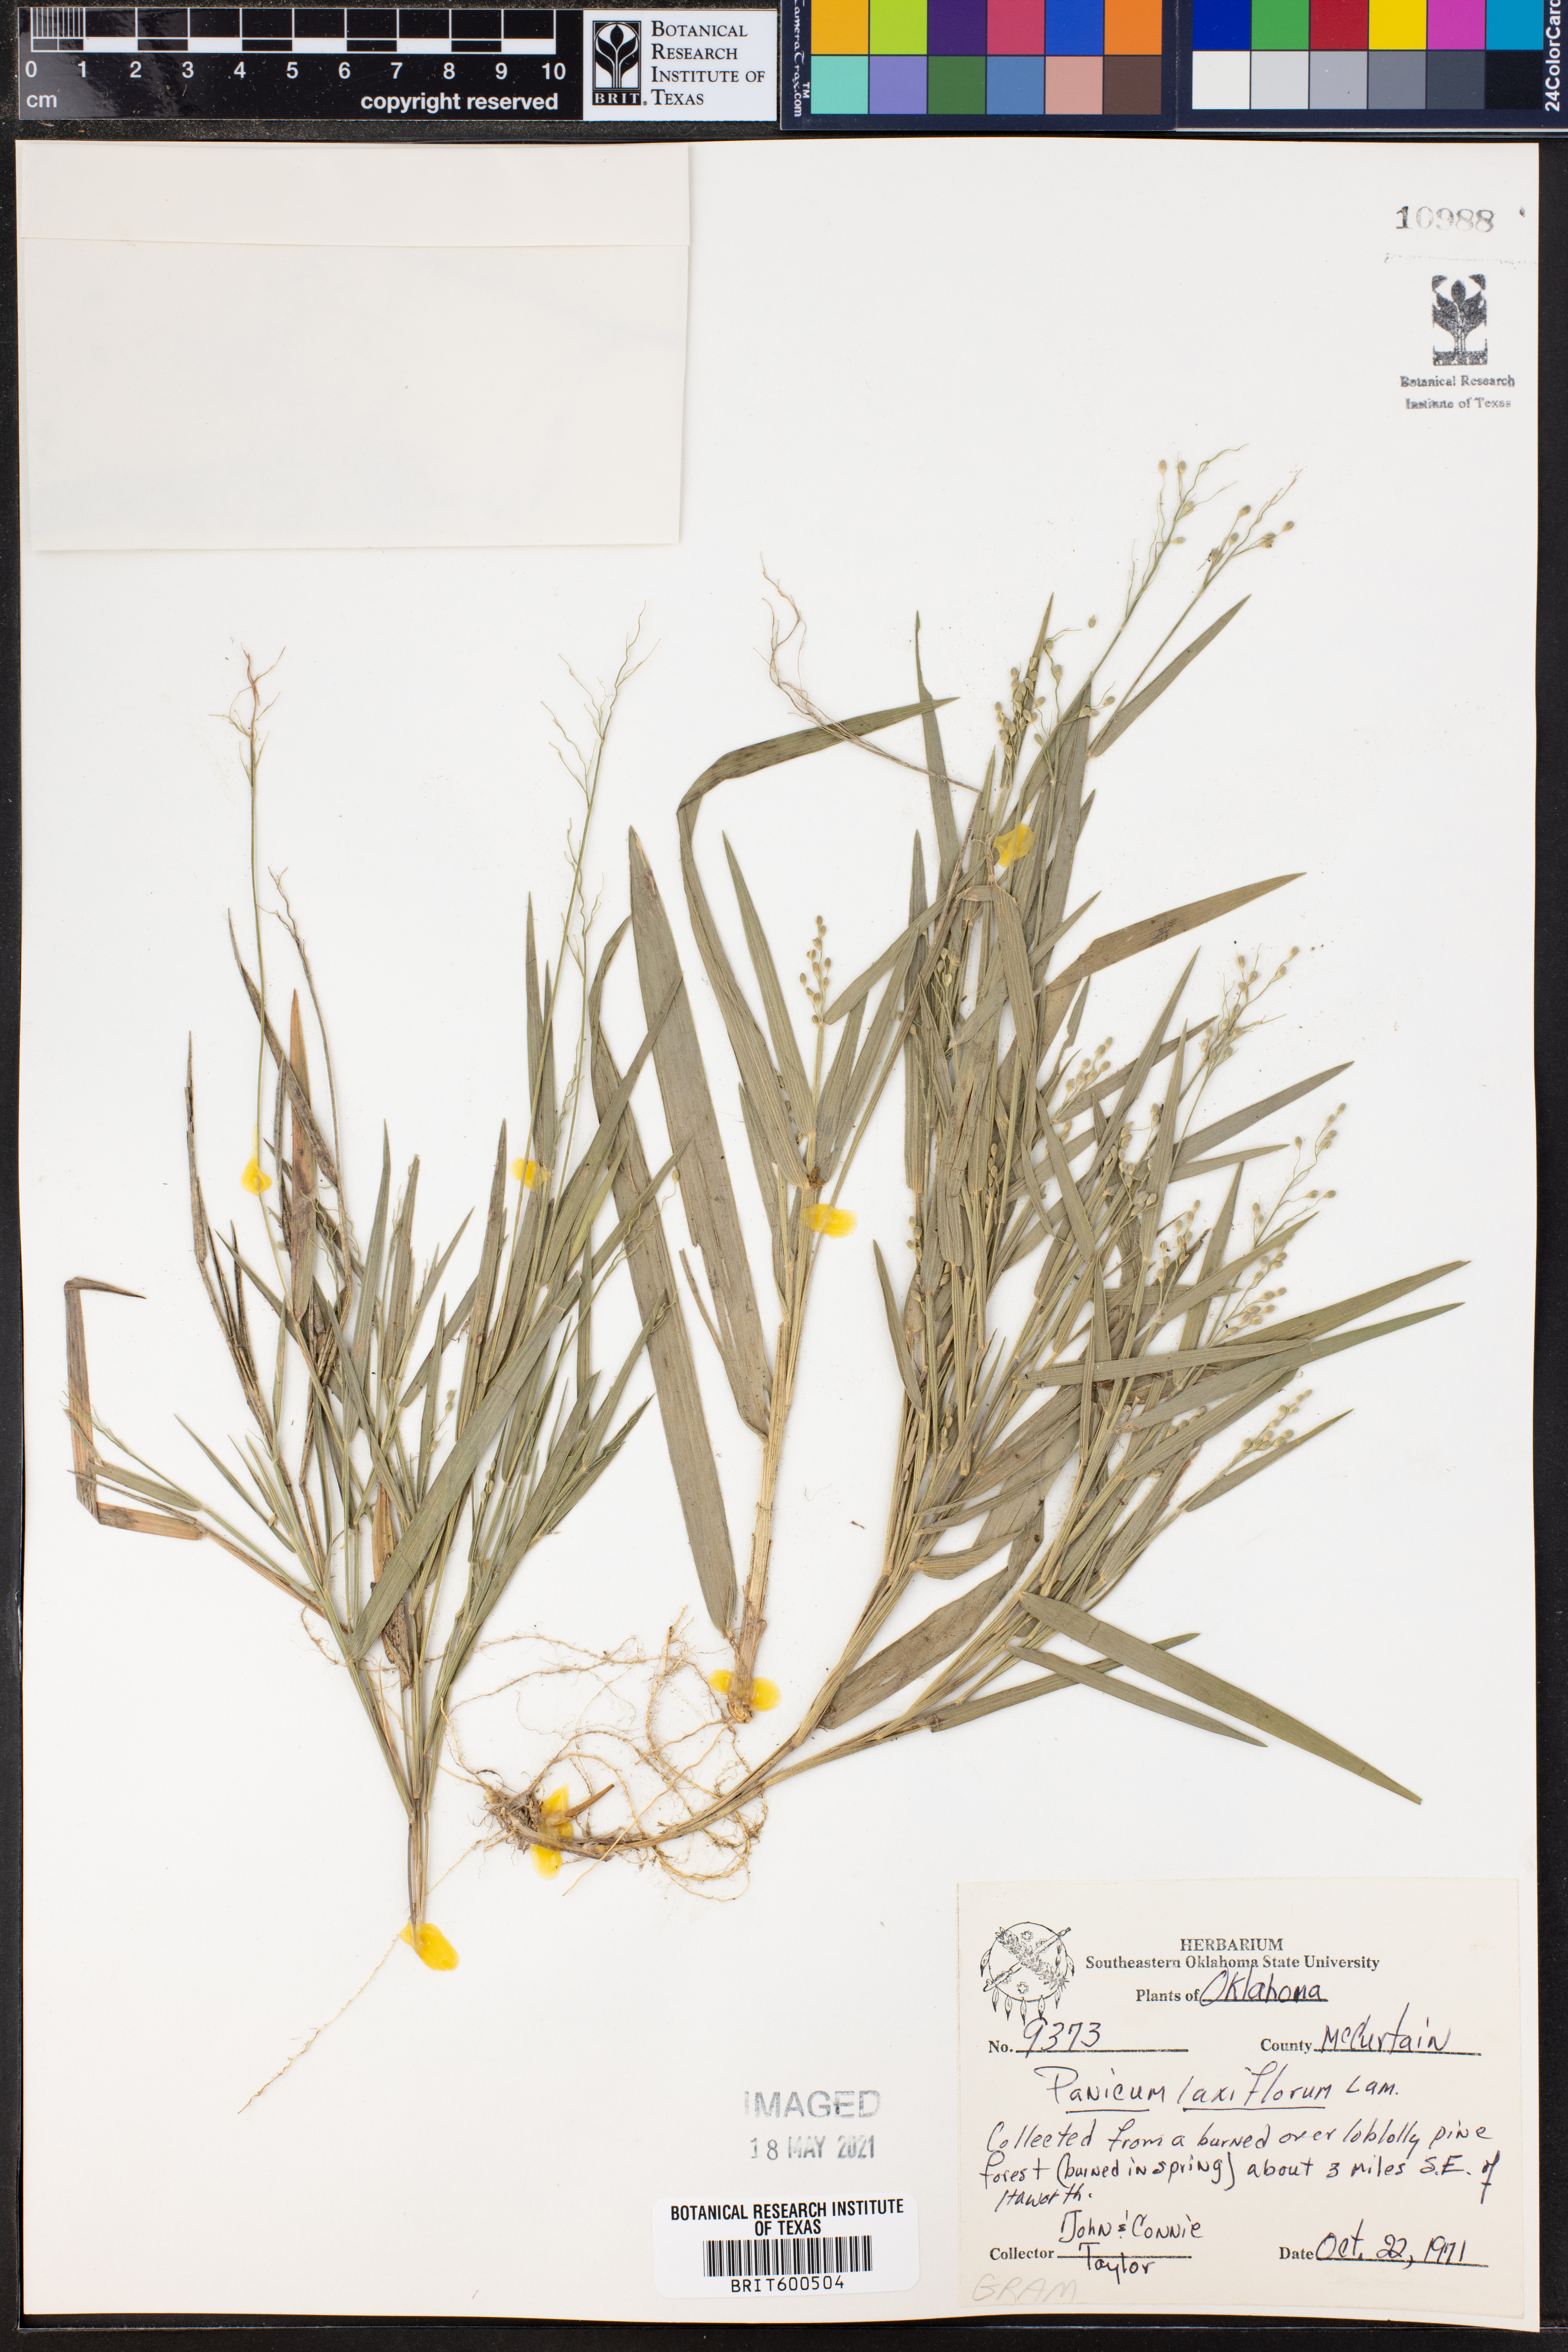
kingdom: Plantae
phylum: Tracheophyta
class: Liliopsida
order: Poales
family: Poaceae
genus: Dichanthelium
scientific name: Dichanthelium laxiflorum
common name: Soft-tuft panic grass
